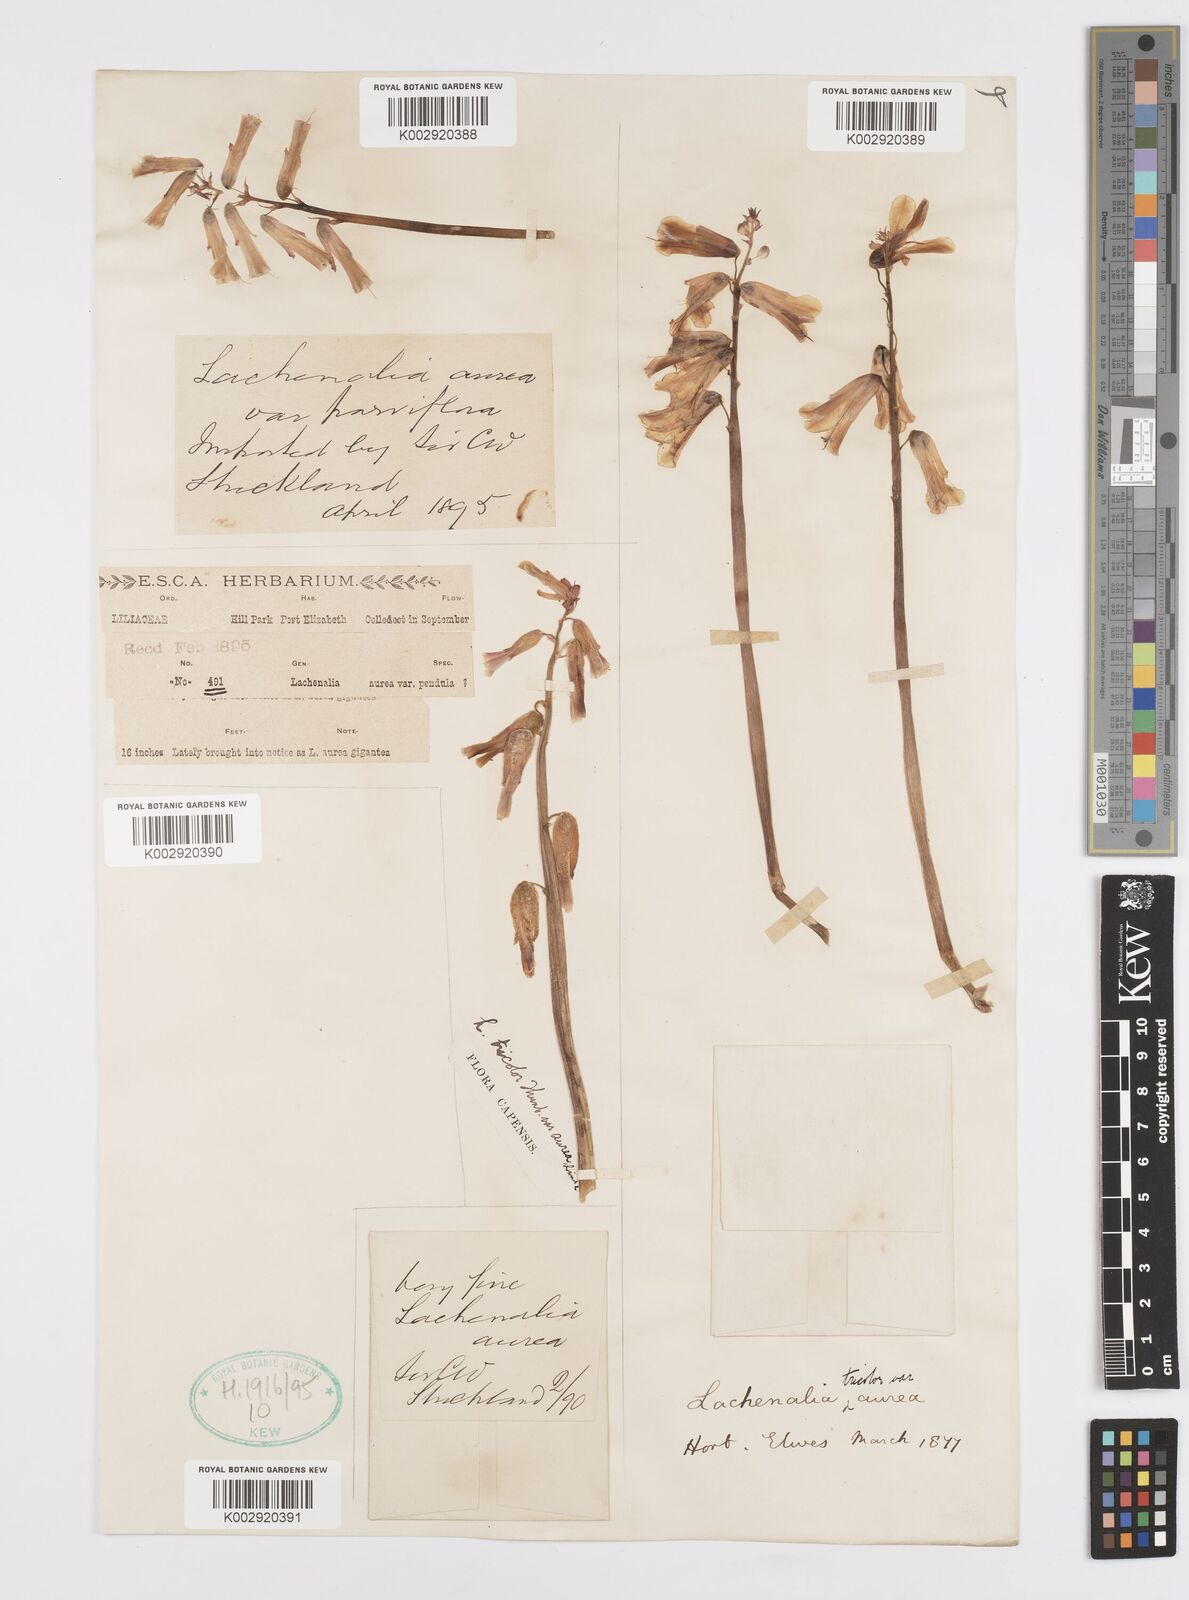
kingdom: Plantae
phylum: Tracheophyta
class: Liliopsida
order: Asparagales
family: Asparagaceae
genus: Lachenalia
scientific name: Lachenalia
